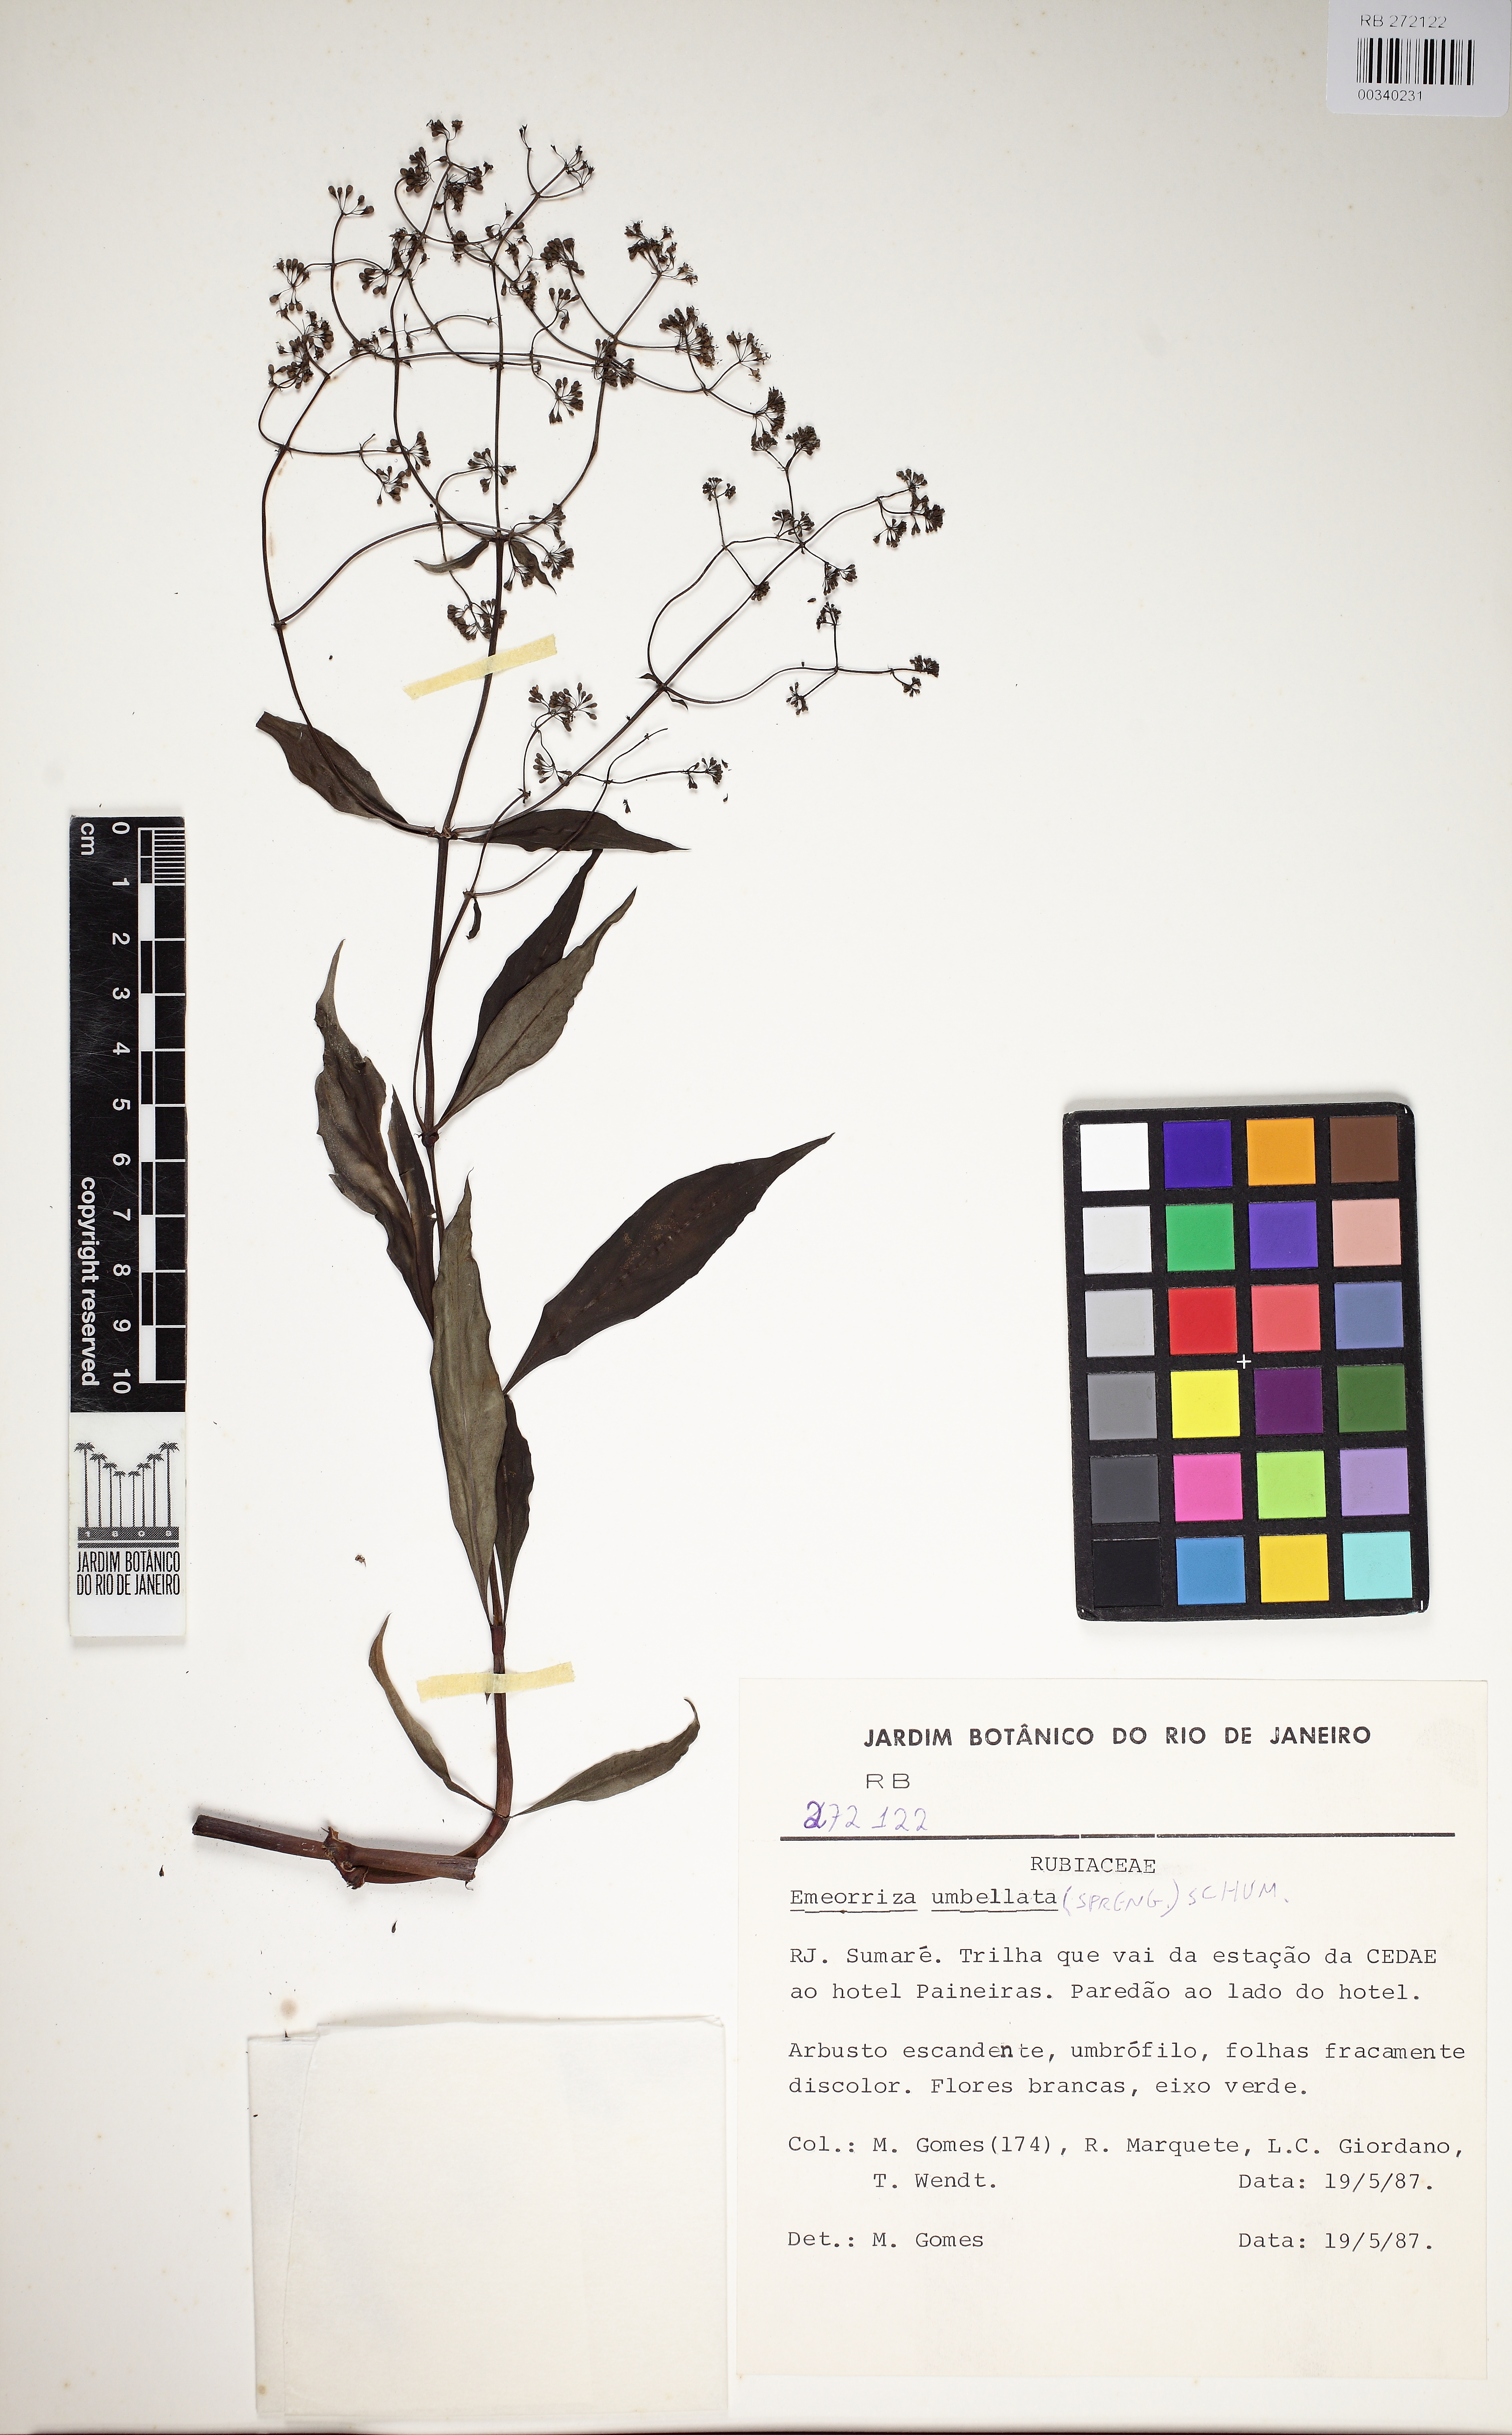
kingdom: Plantae
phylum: Tracheophyta
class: Magnoliopsida
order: Gentianales
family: Rubiaceae
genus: Emmeorhiza
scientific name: Emmeorhiza umbellata
